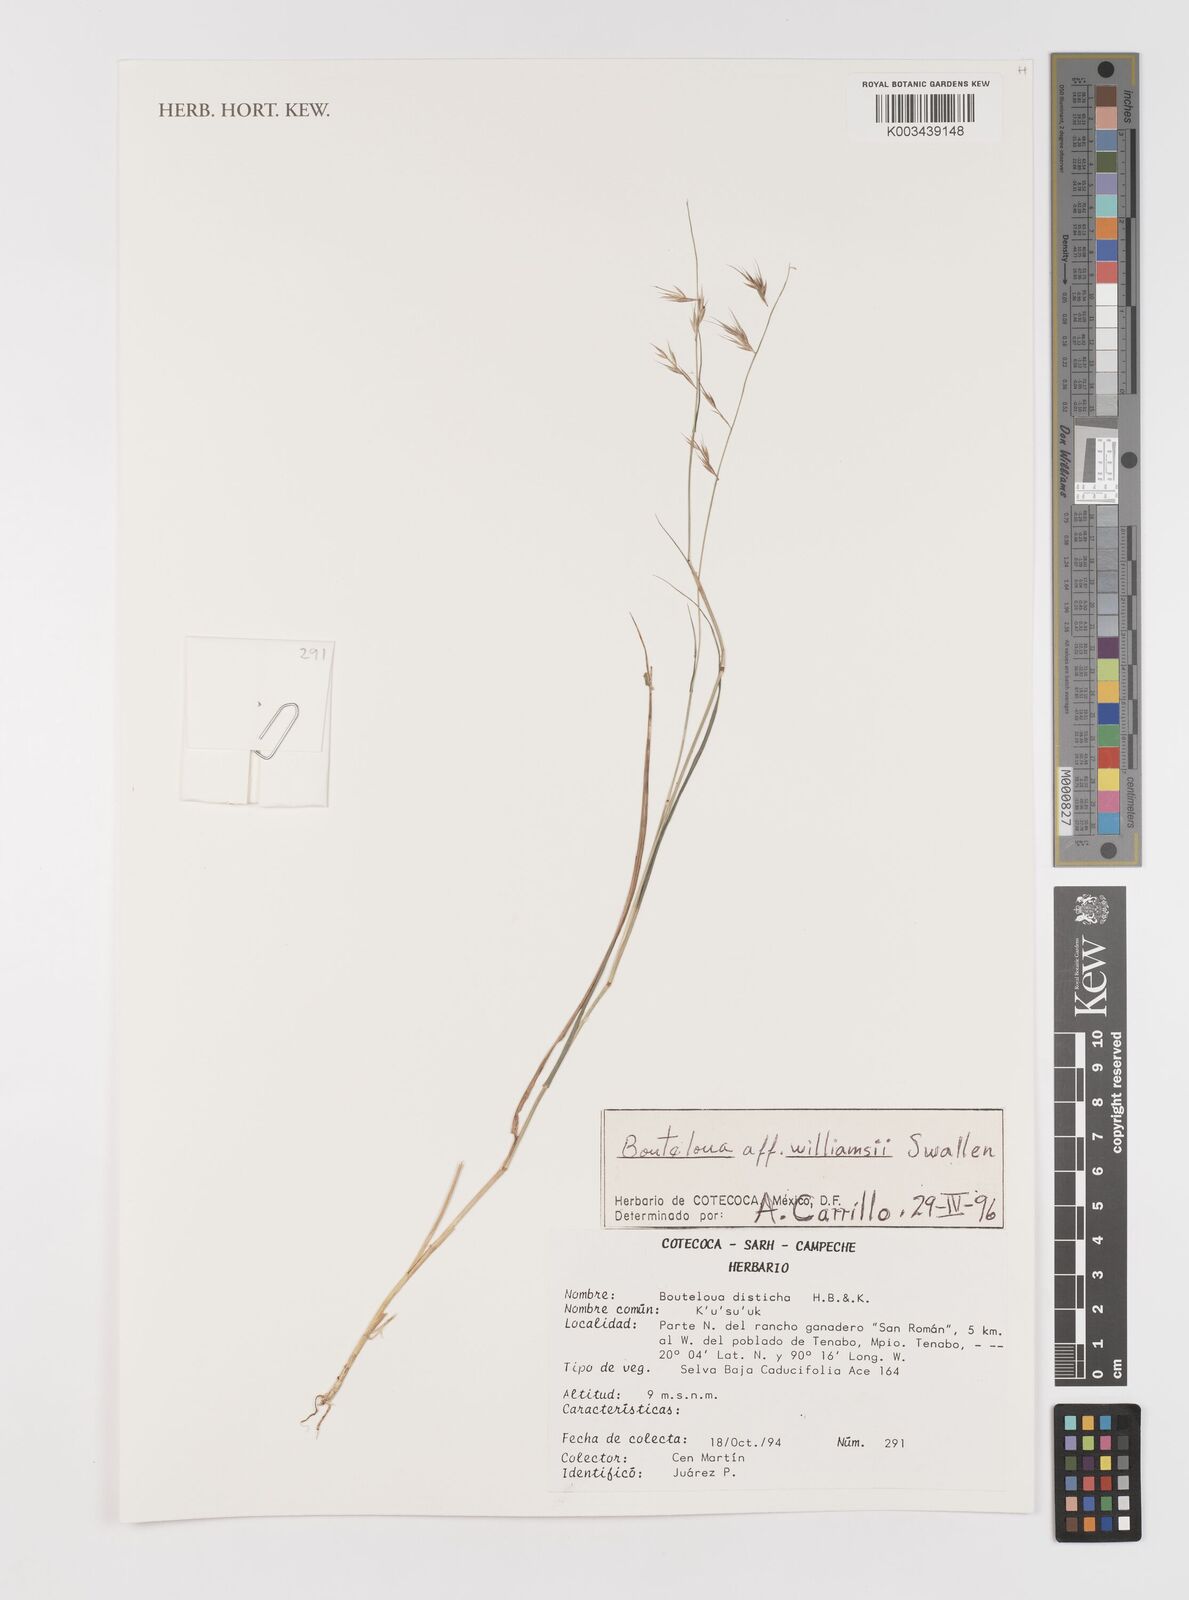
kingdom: Plantae
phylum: Tracheophyta
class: Liliopsida
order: Poales
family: Poaceae
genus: Bouteloua
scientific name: Bouteloua williamsii
